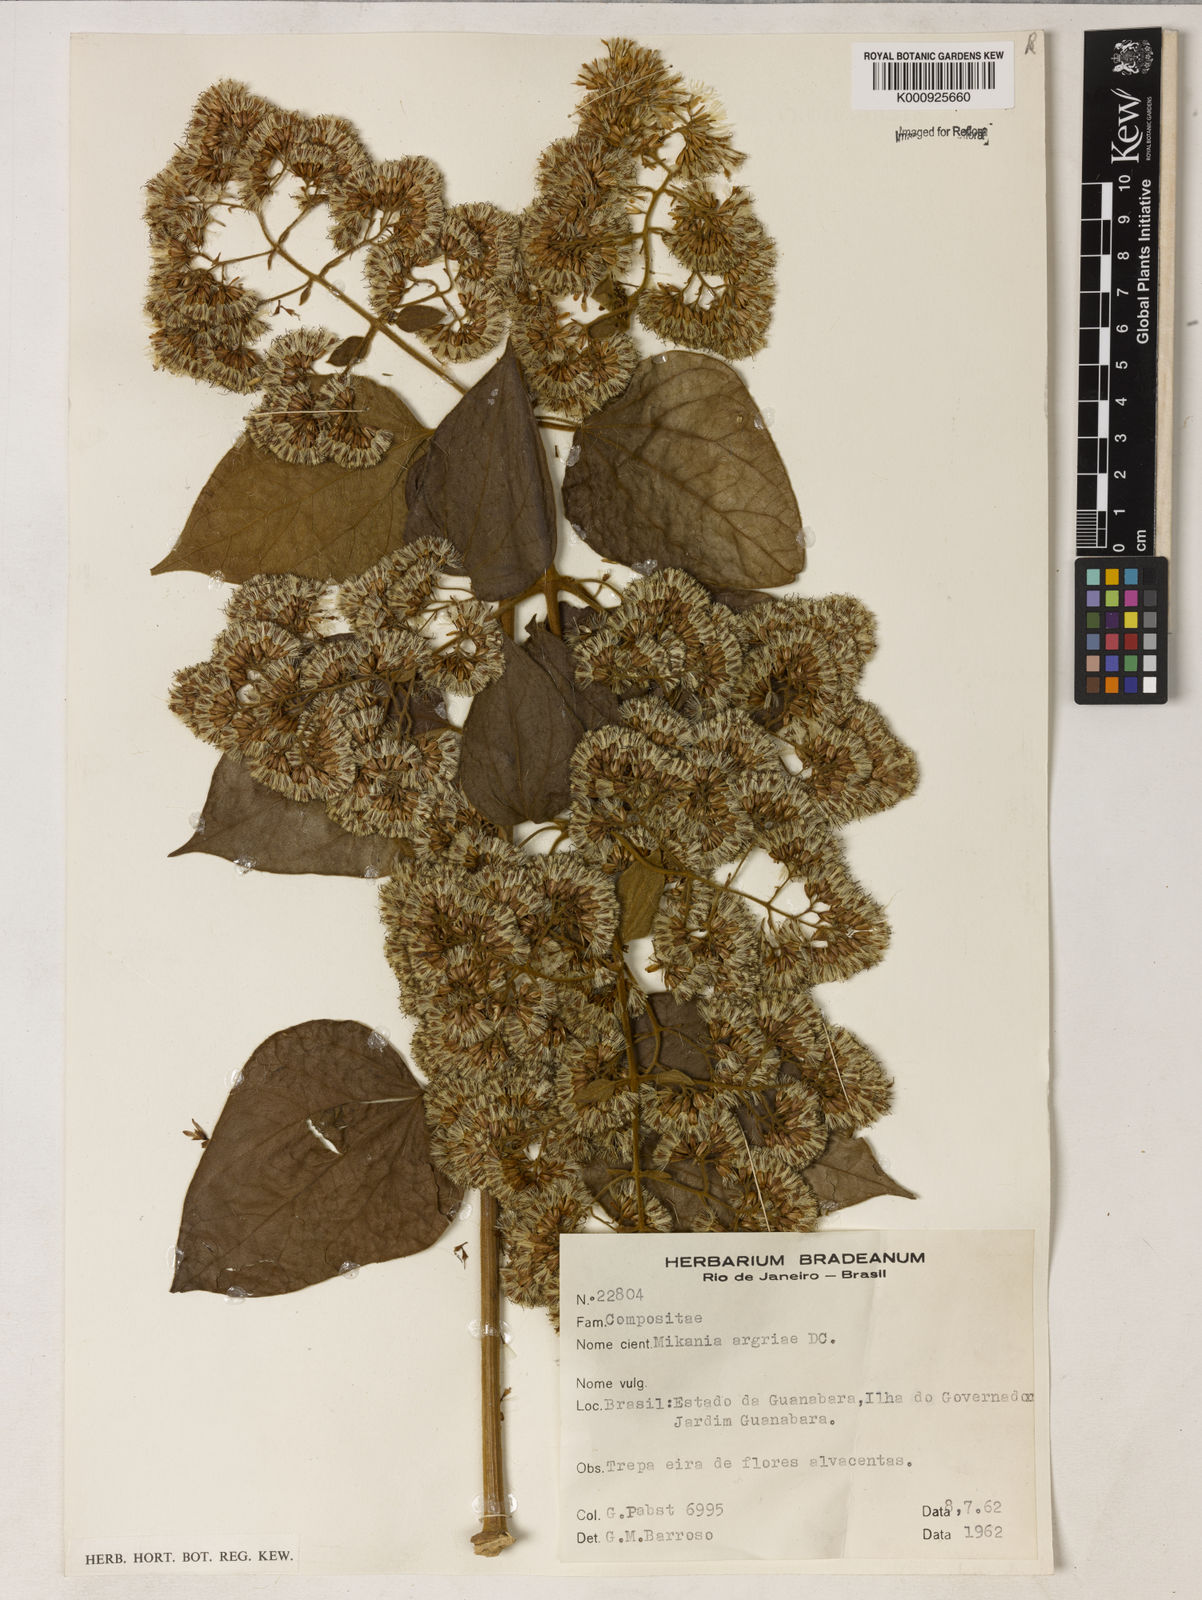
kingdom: Plantae
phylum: Tracheophyta
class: Magnoliopsida
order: Asterales
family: Asteraceae
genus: Mikania
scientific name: Mikania
